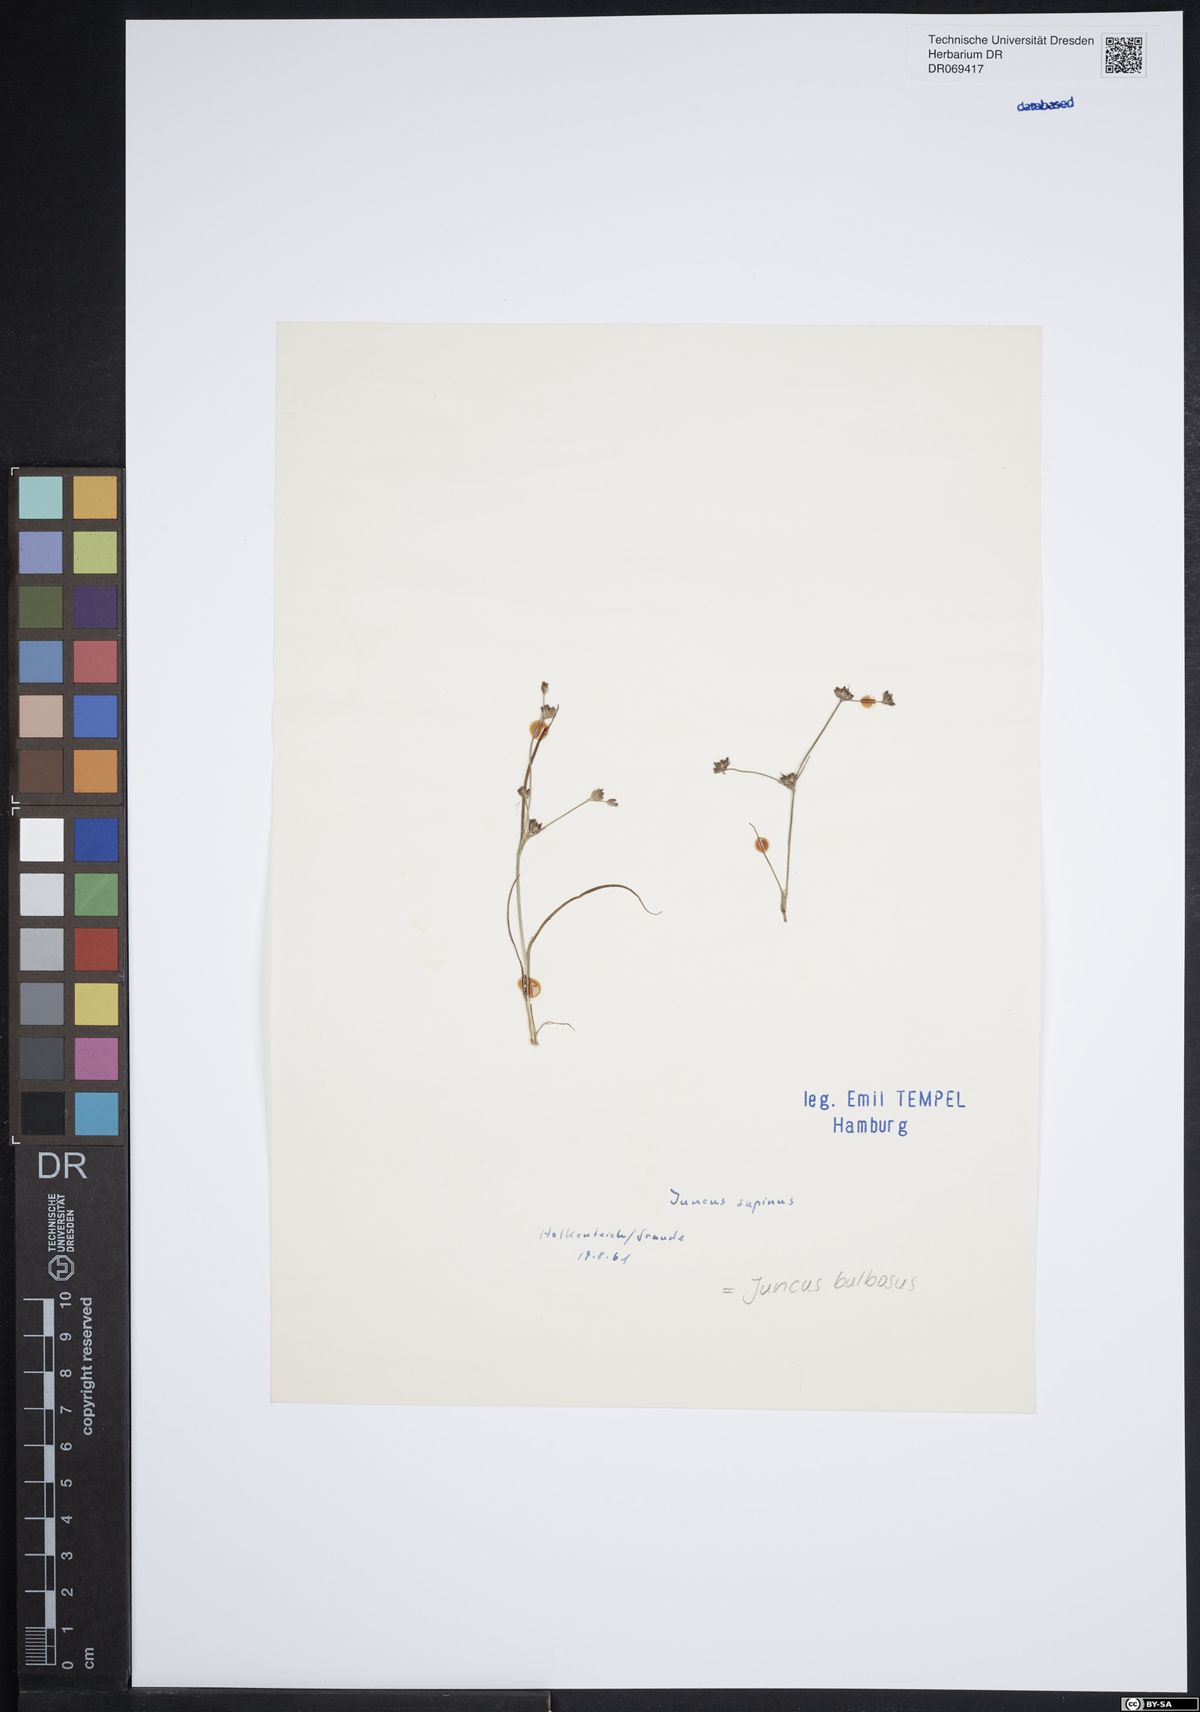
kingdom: Plantae
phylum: Tracheophyta
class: Liliopsida
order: Poales
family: Juncaceae
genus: Juncus
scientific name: Juncus bulbosus
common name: Bulbous rush
